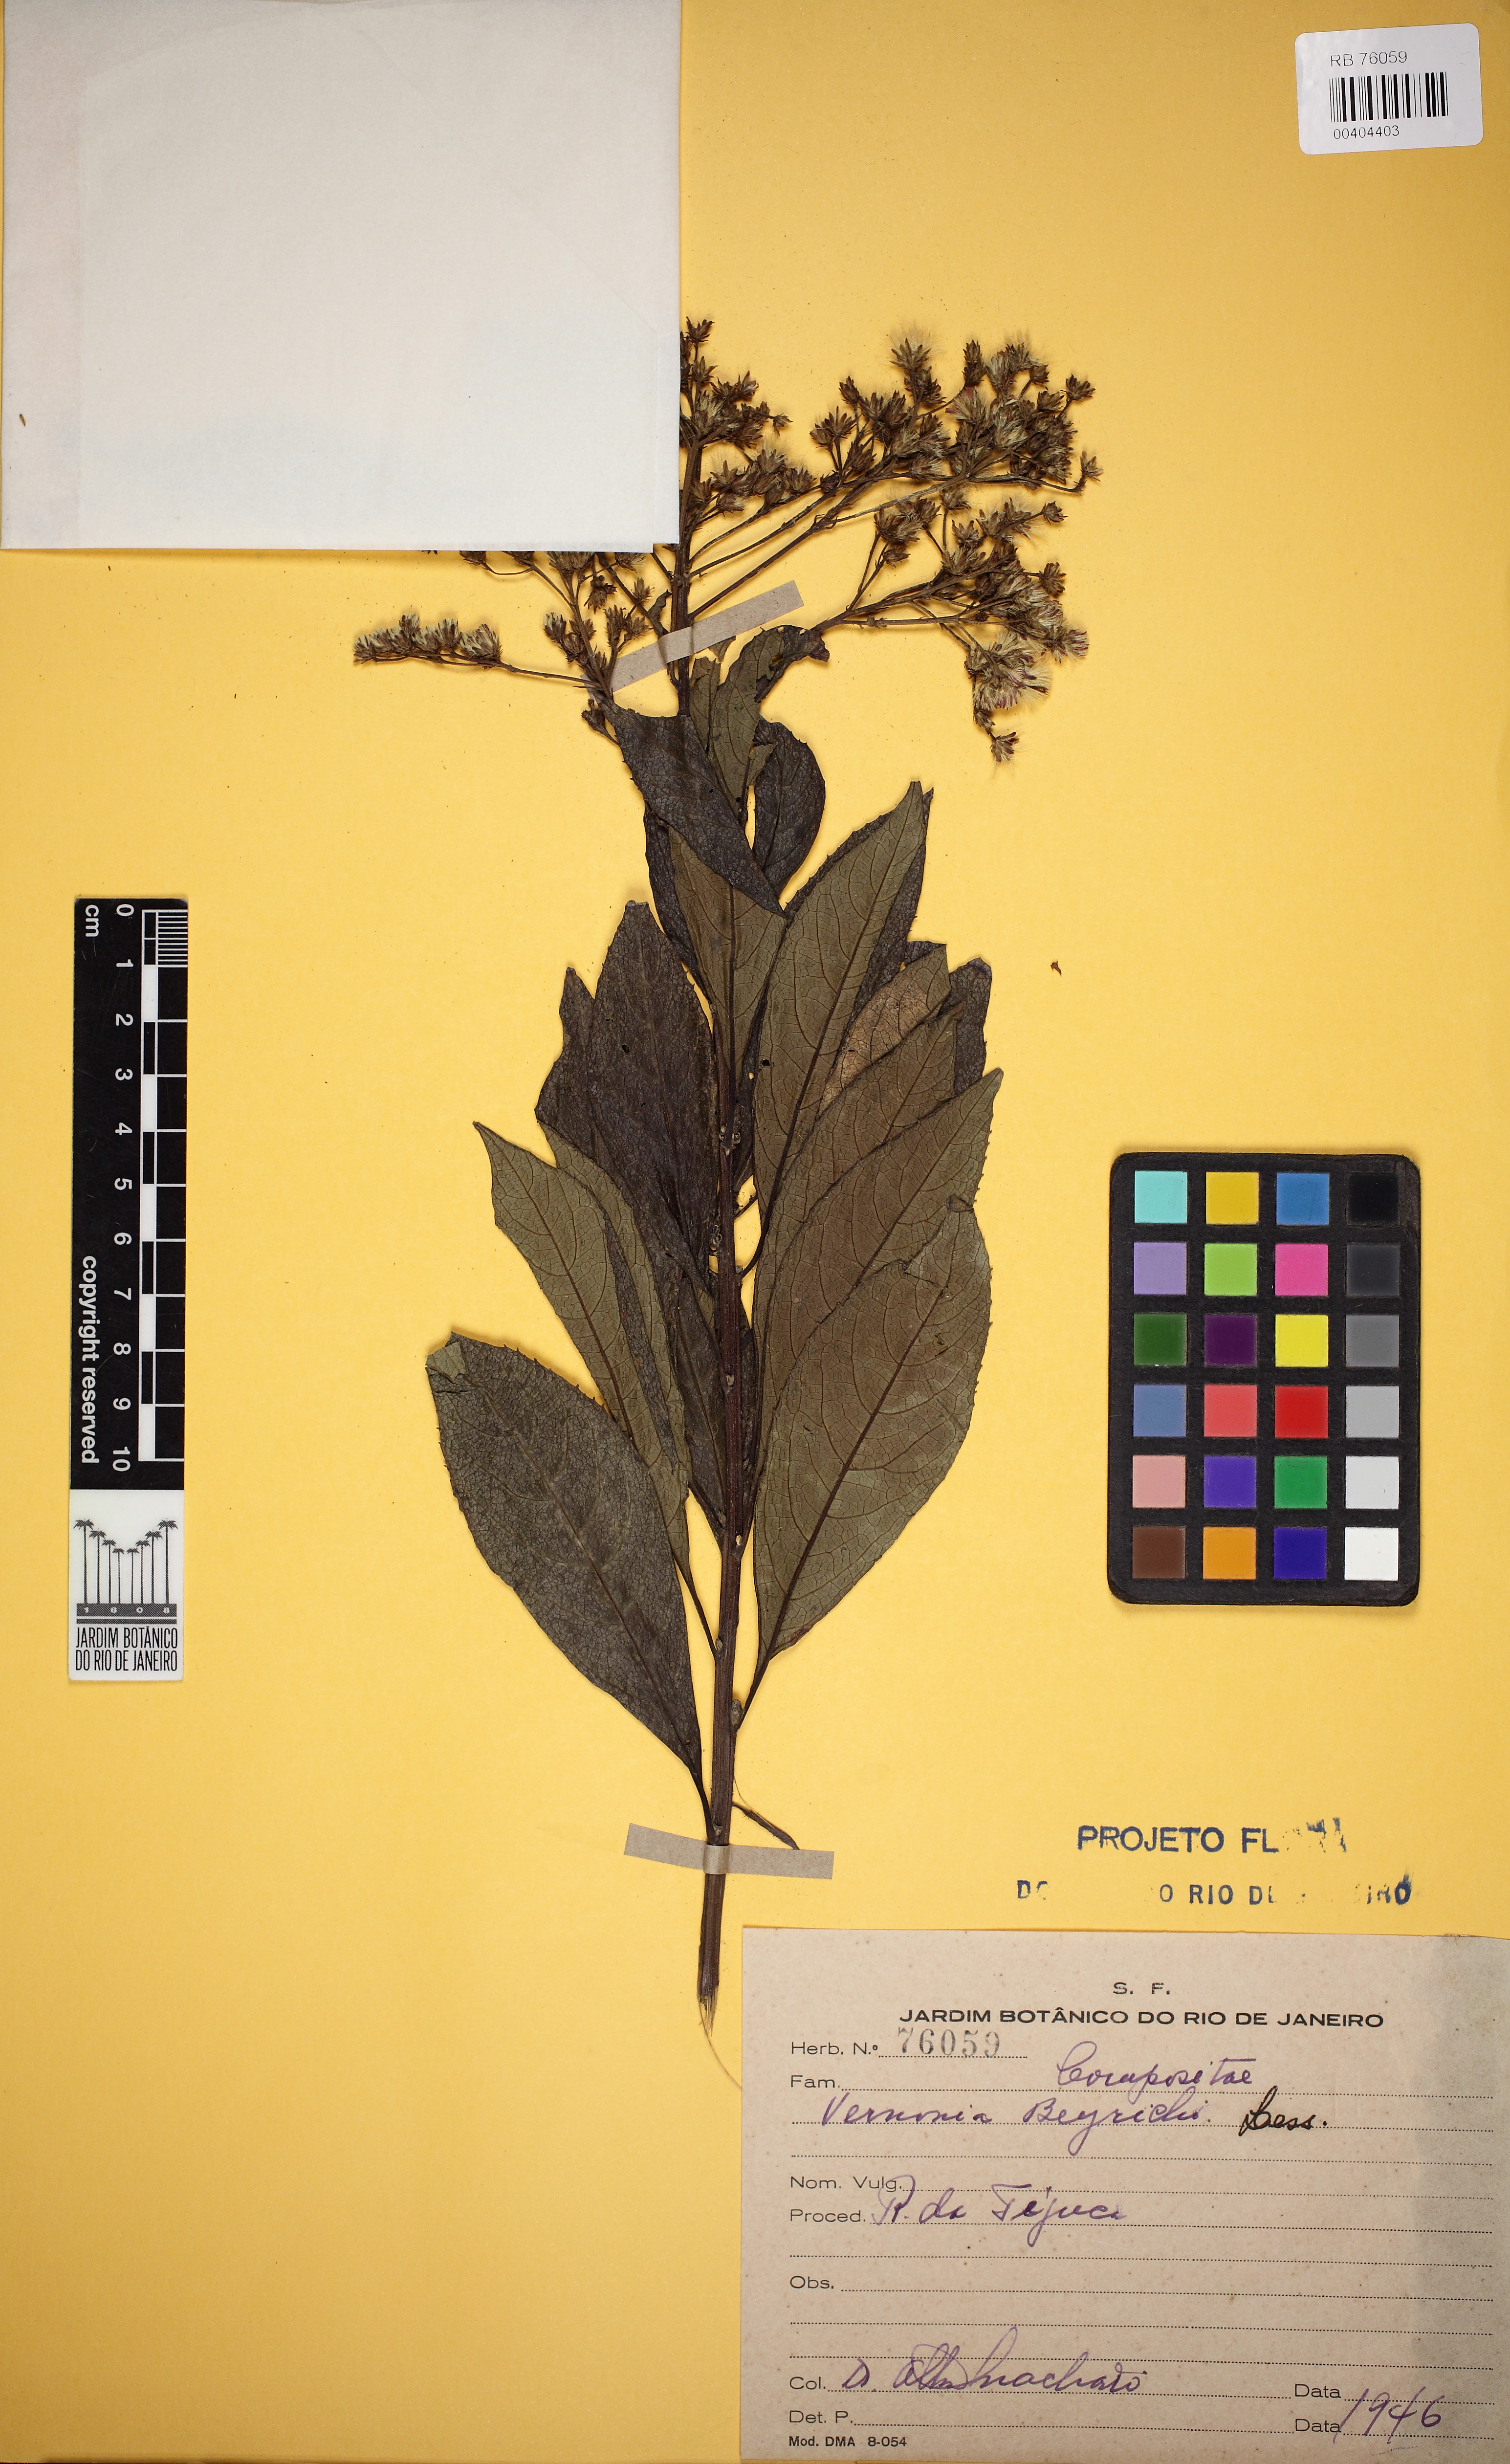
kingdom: Plantae
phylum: Tracheophyta
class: Magnoliopsida
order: Asterales
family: Asteraceae
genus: Vernonanthura
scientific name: Vernonanthura beyrichii
